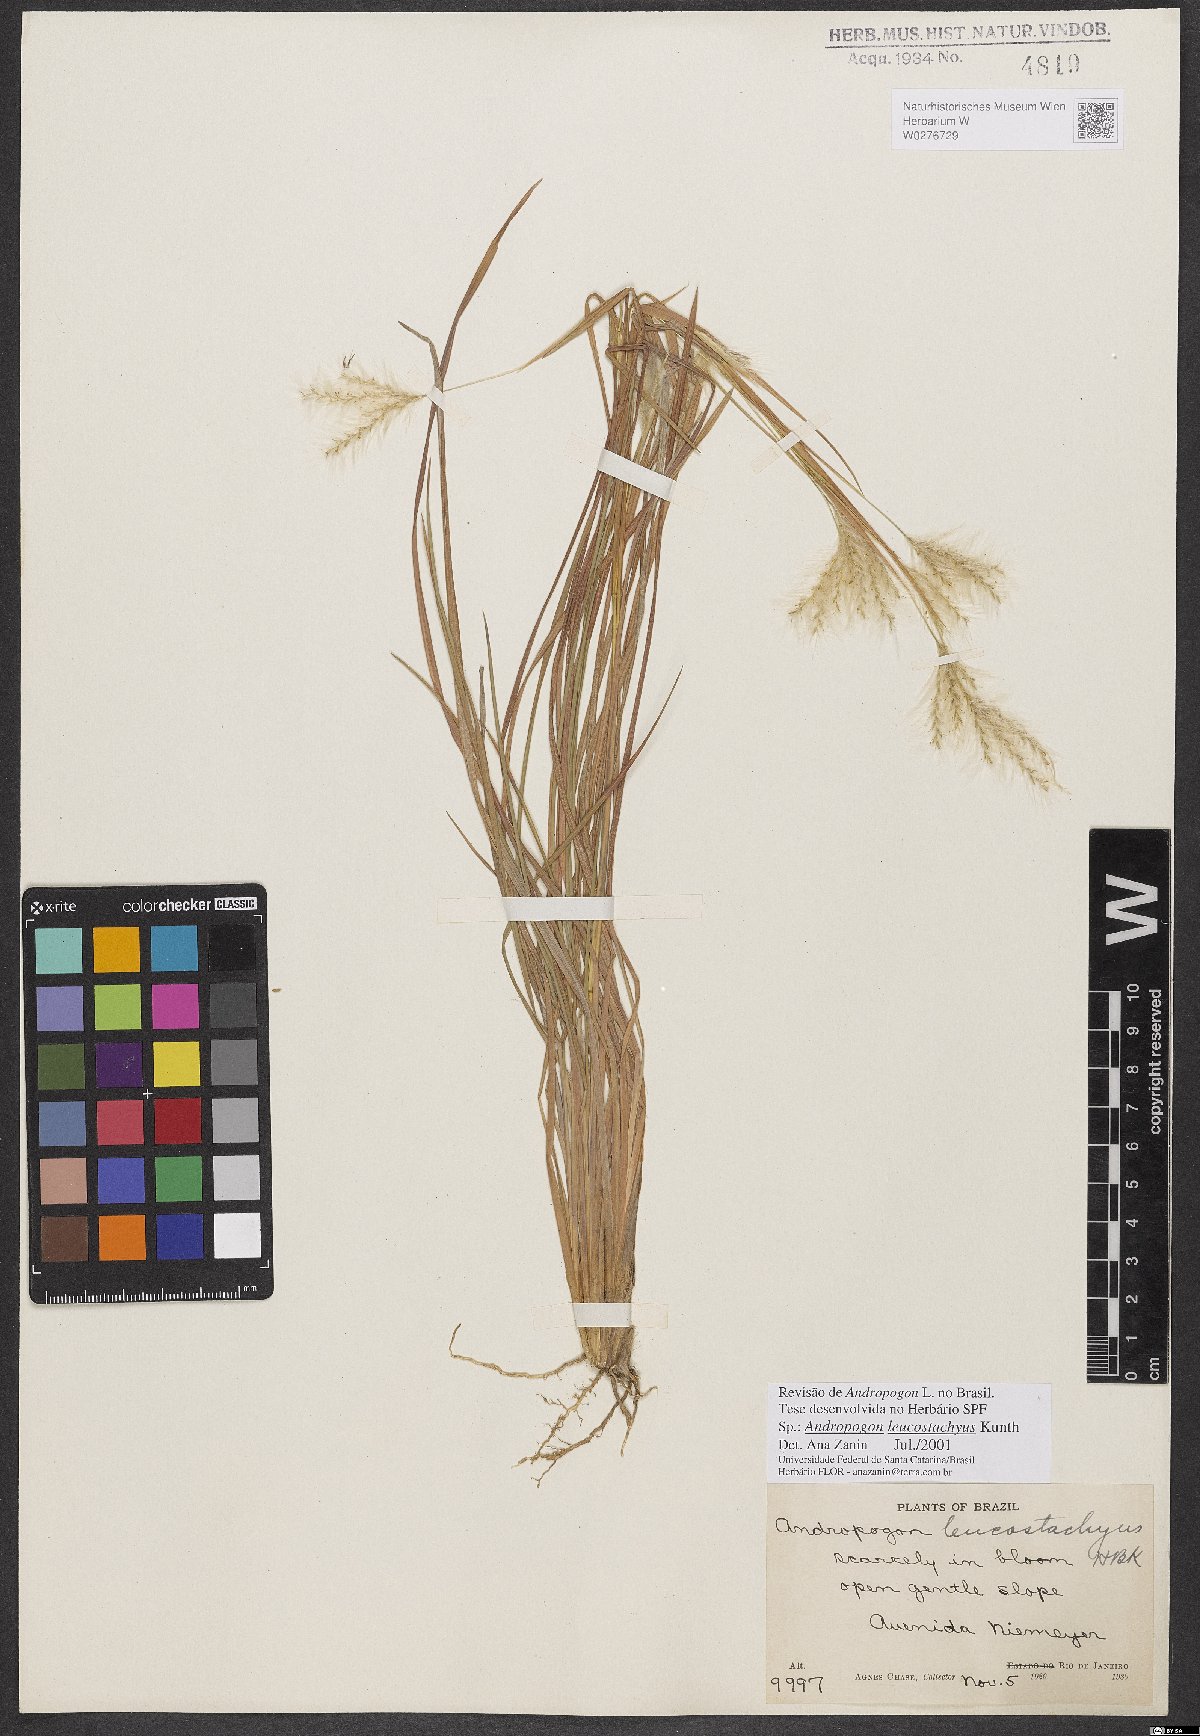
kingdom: Plantae
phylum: Tracheophyta
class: Liliopsida
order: Poales
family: Poaceae
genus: Andropogon
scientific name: Andropogon leucostachyus
